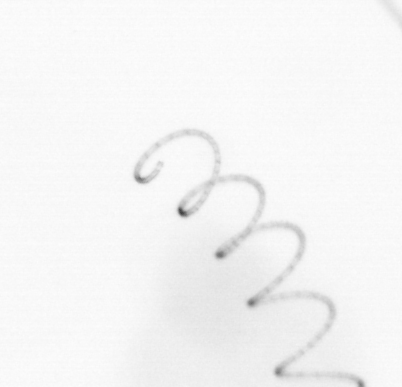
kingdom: Chromista
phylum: Ochrophyta
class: Bacillariophyceae
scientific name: Bacillariophyceae
